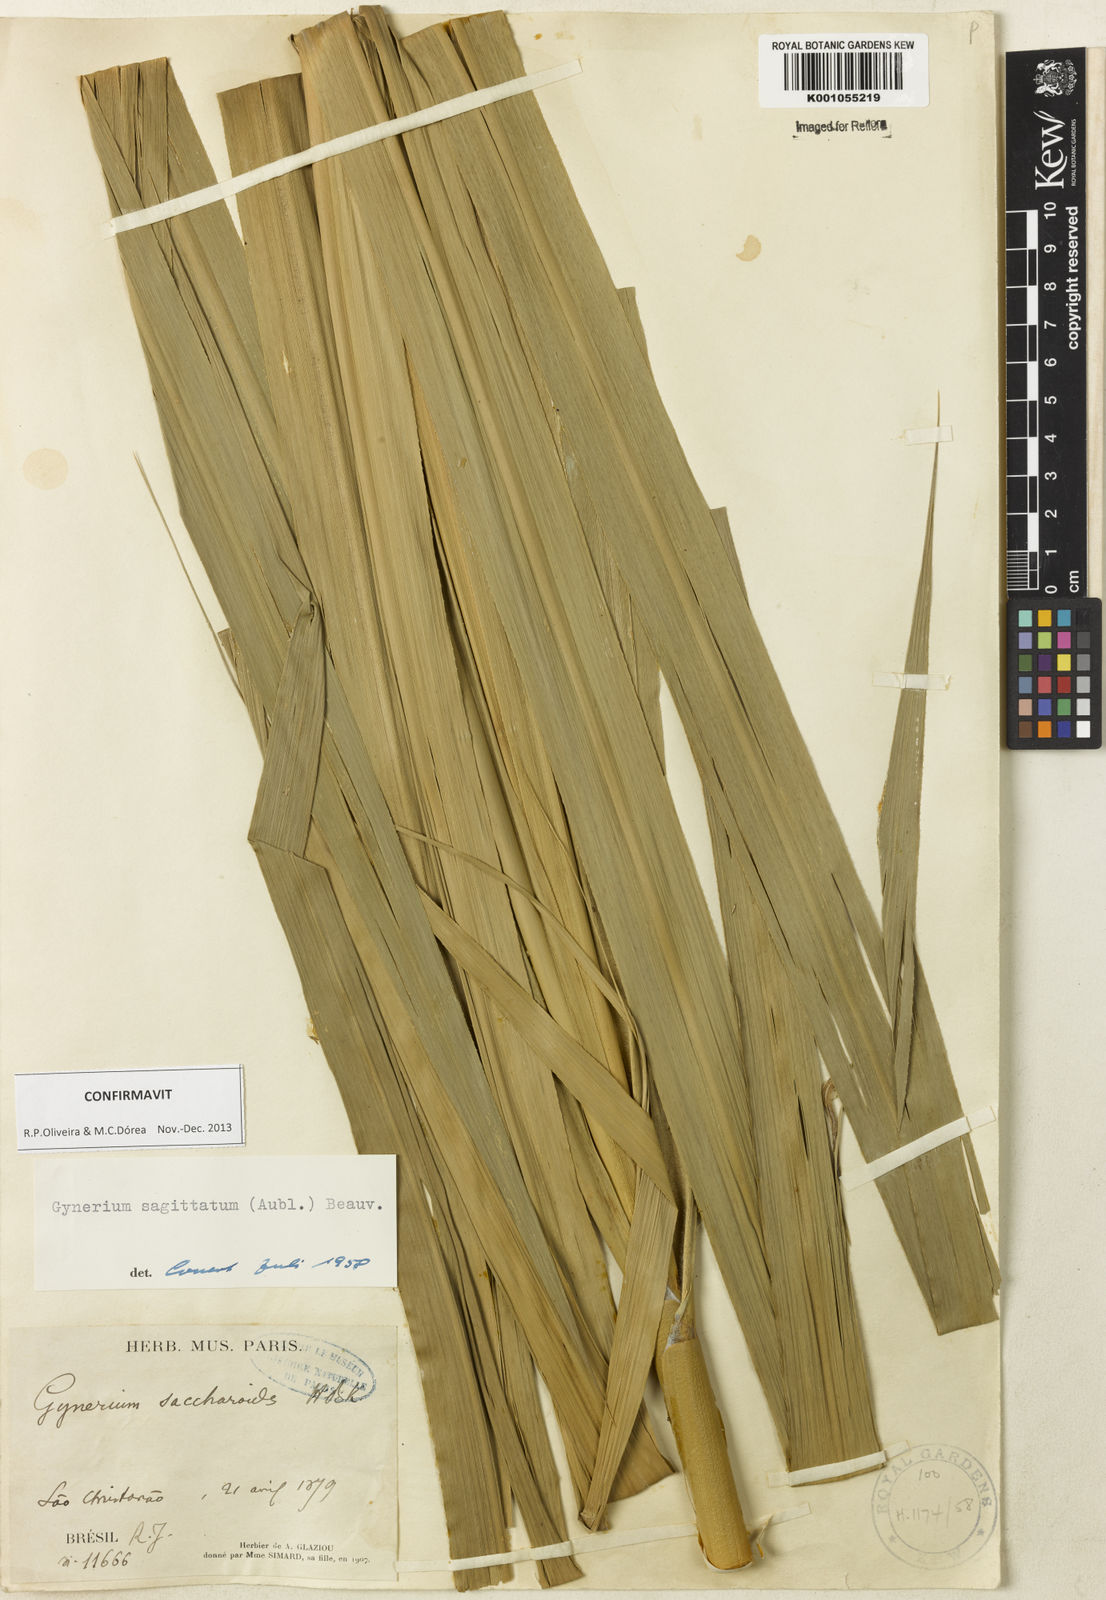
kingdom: Plantae
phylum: Tracheophyta
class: Liliopsida
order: Poales
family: Poaceae
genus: Gynerium
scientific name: Gynerium sagittatum
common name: Wild cane
